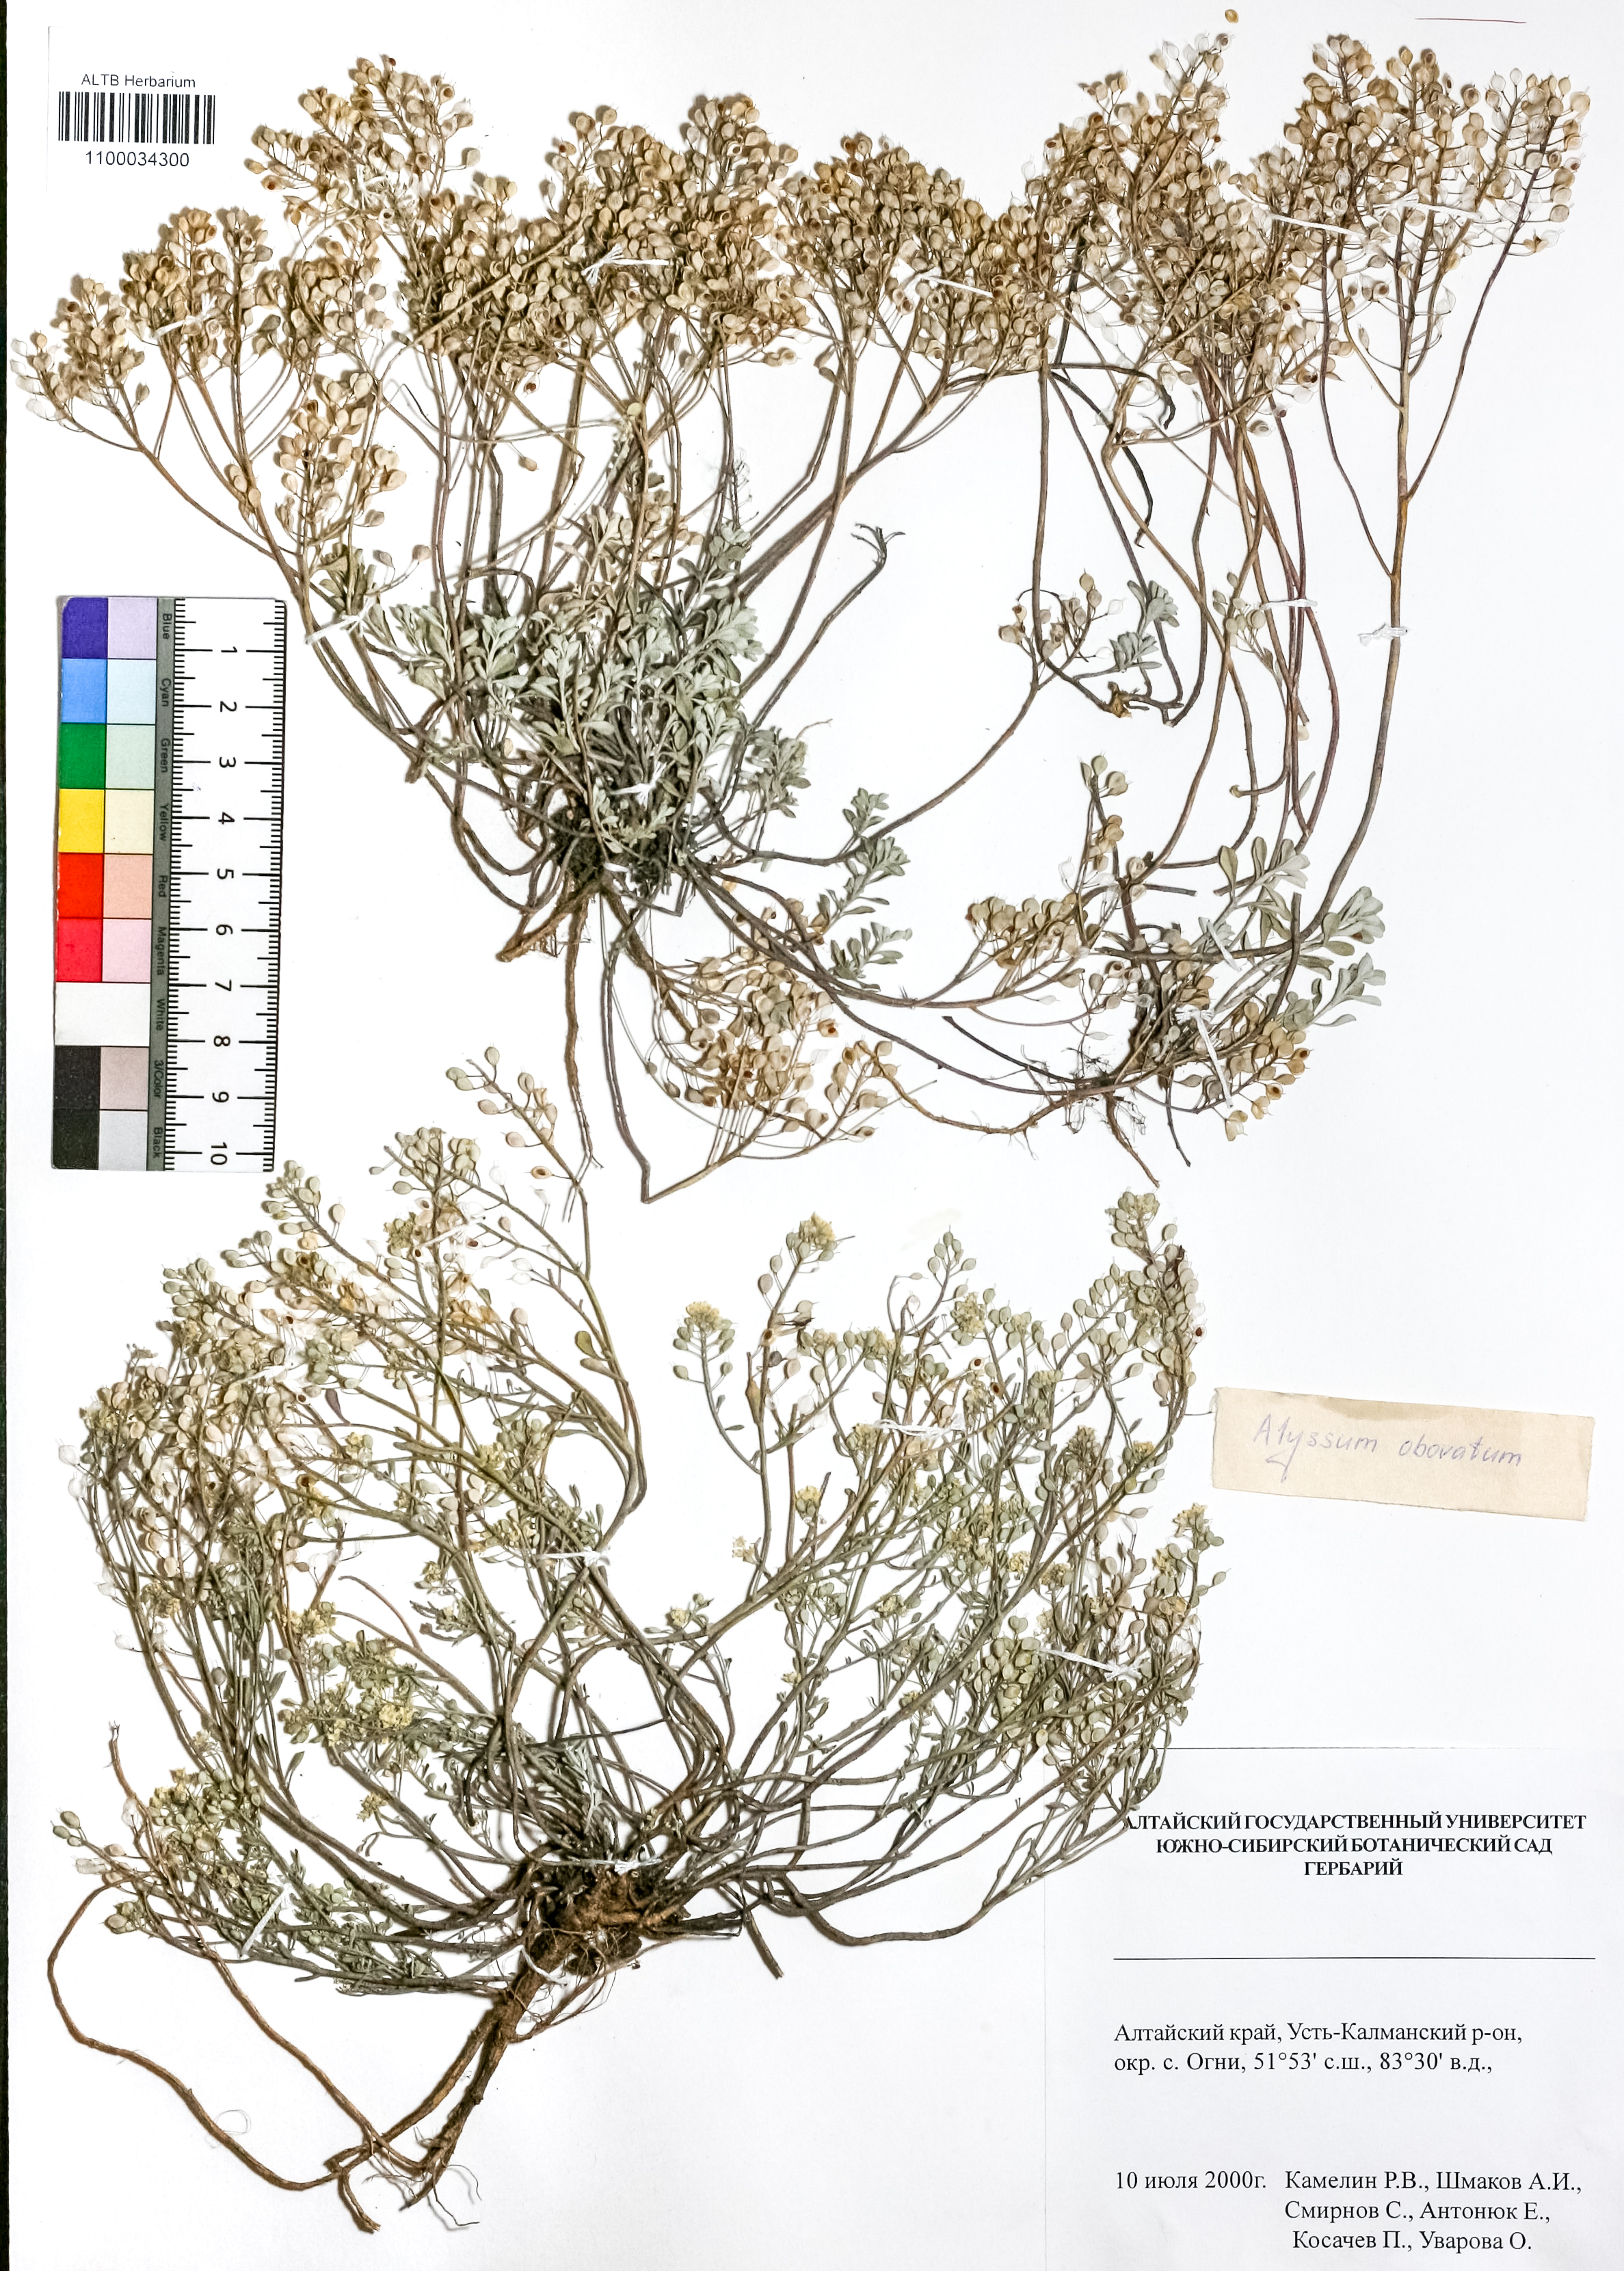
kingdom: Plantae
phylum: Tracheophyta
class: Magnoliopsida
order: Brassicales
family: Brassicaceae
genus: Odontarrhena
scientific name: Odontarrhena obovata
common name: American alyssum
